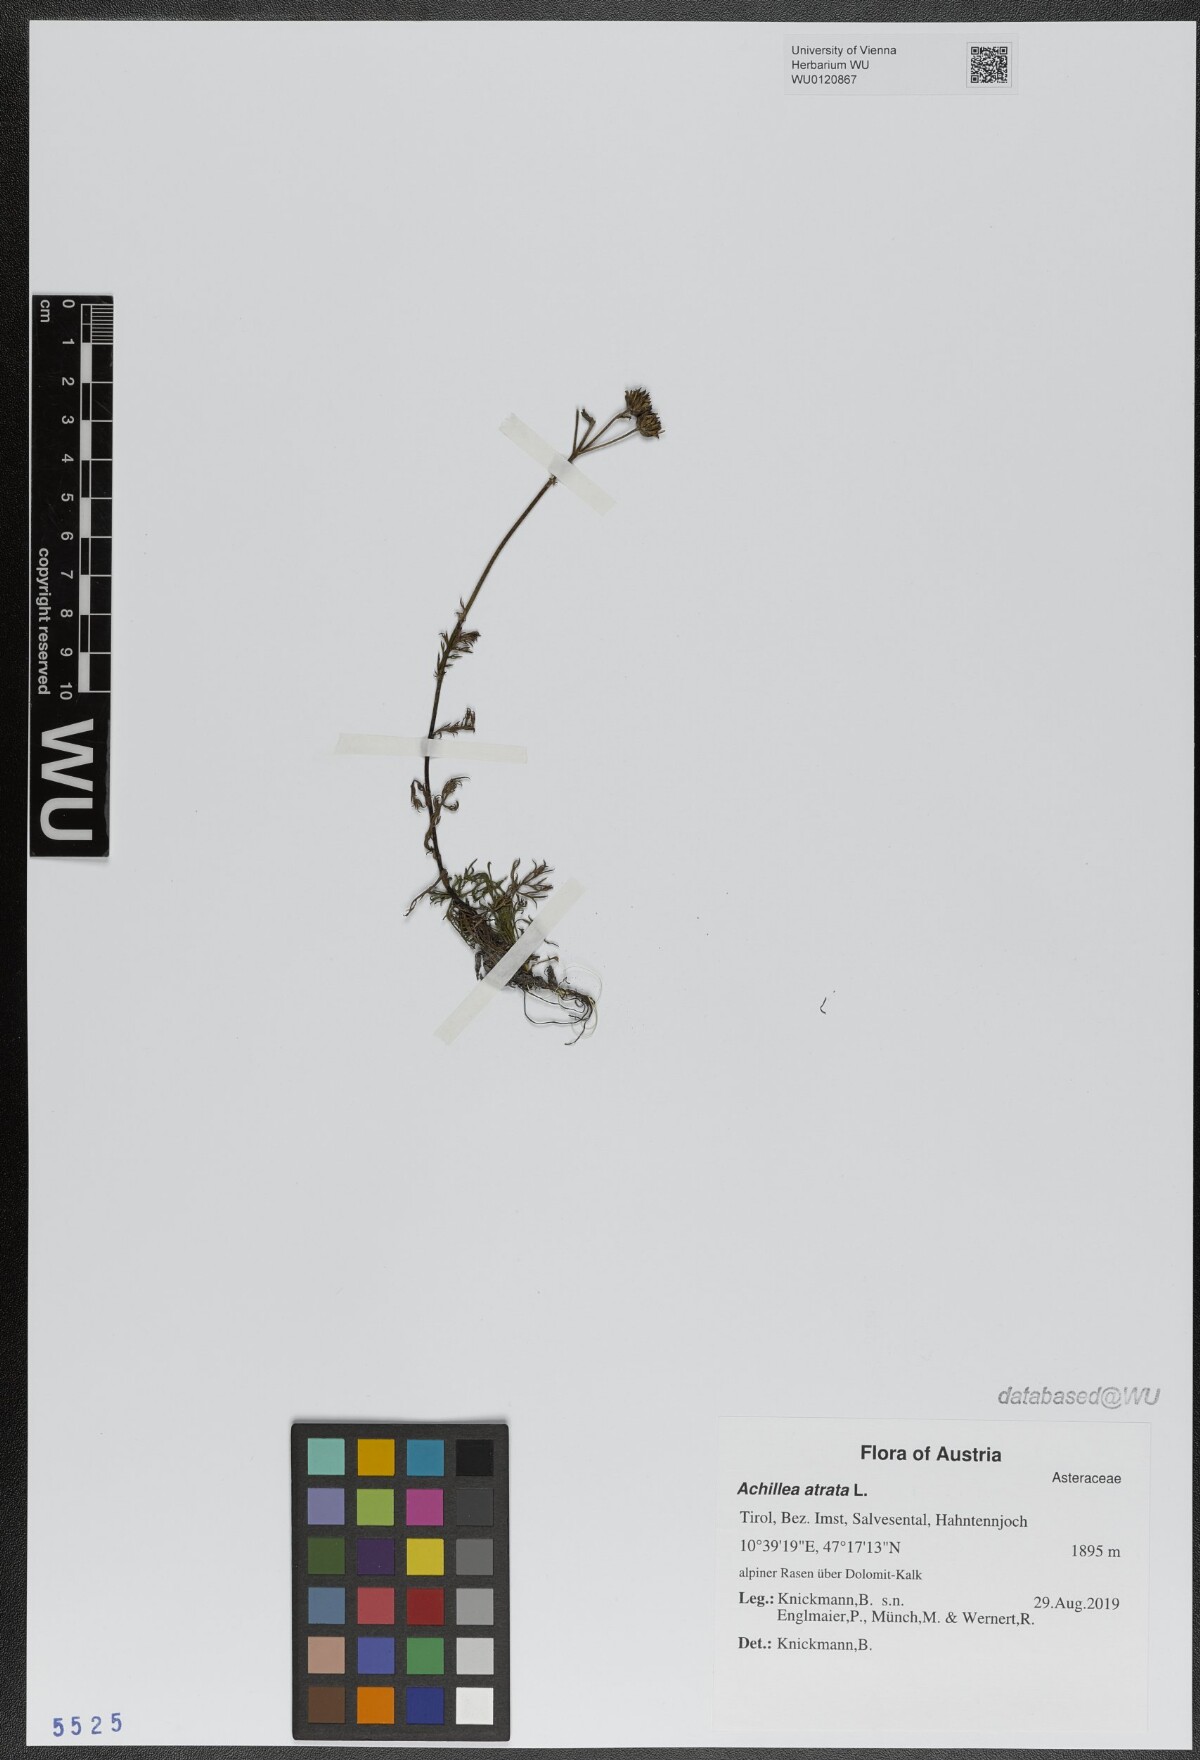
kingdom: Plantae
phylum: Tracheophyta
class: Magnoliopsida
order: Asterales
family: Asteraceae
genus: Achillea
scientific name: Achillea atrata
